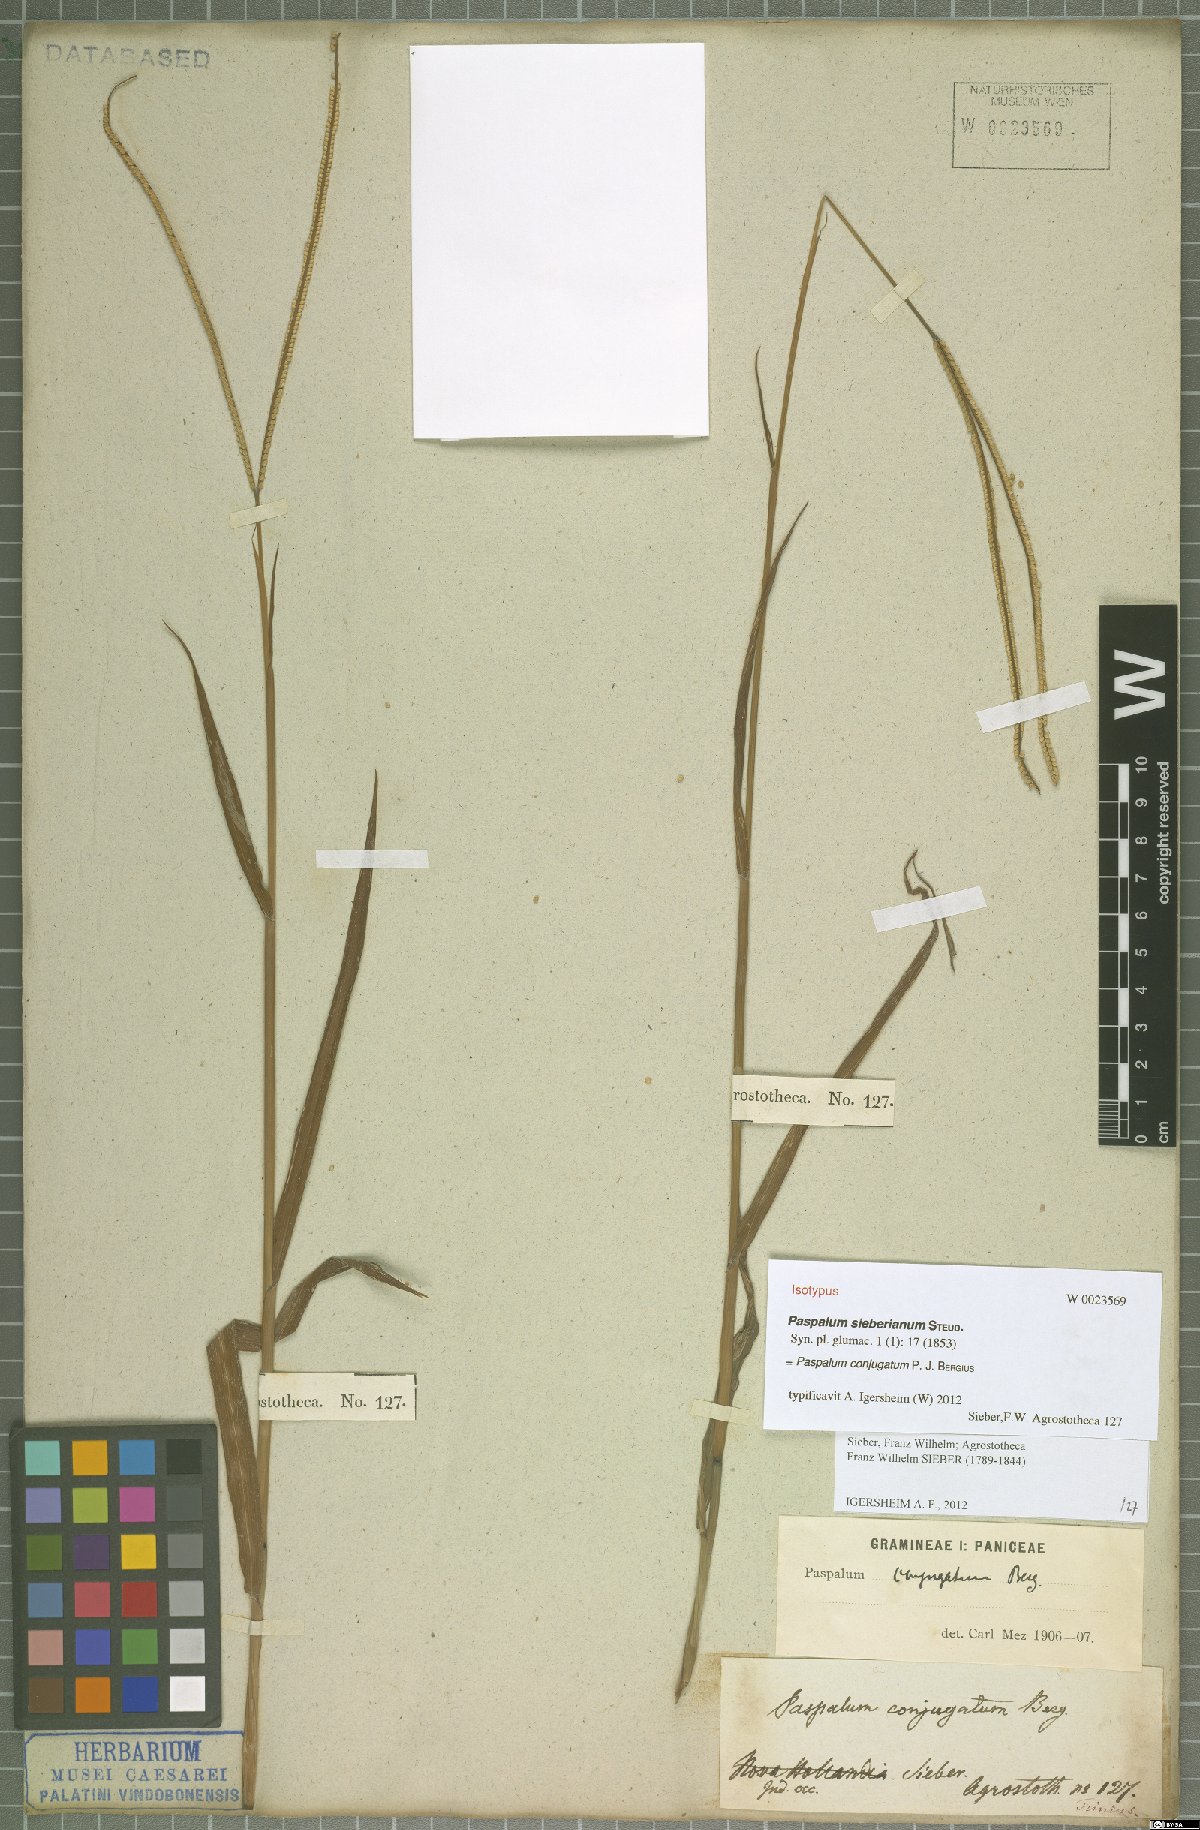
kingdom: Plantae
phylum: Tracheophyta
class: Liliopsida
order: Poales
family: Poaceae
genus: Paspalum
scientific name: Paspalum conjugatum
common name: Hilograss
